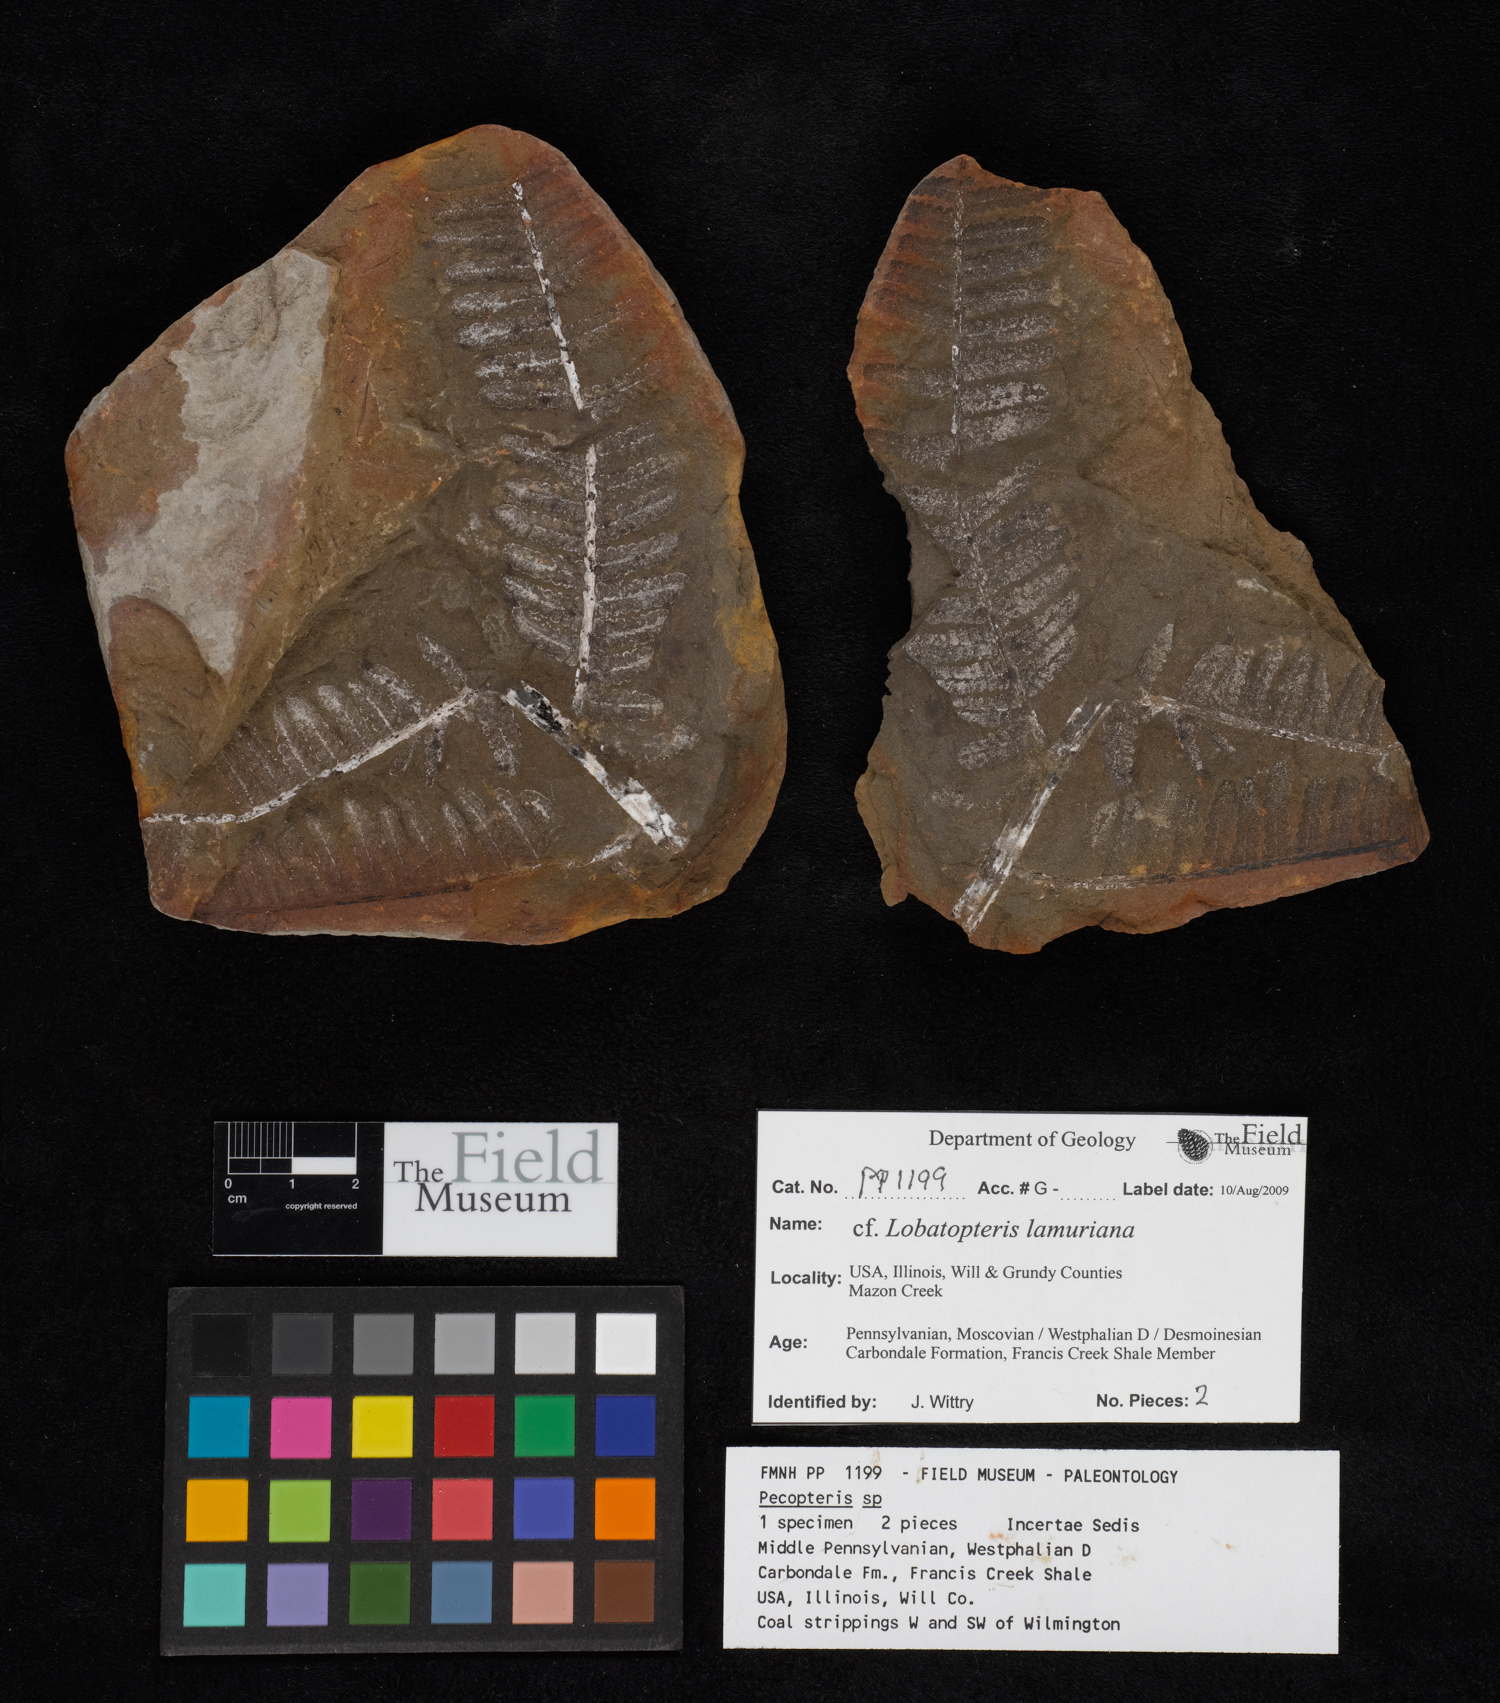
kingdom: Plantae
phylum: Tracheophyta
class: Polypodiopsida
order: Marattiales
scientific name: Marattiales
